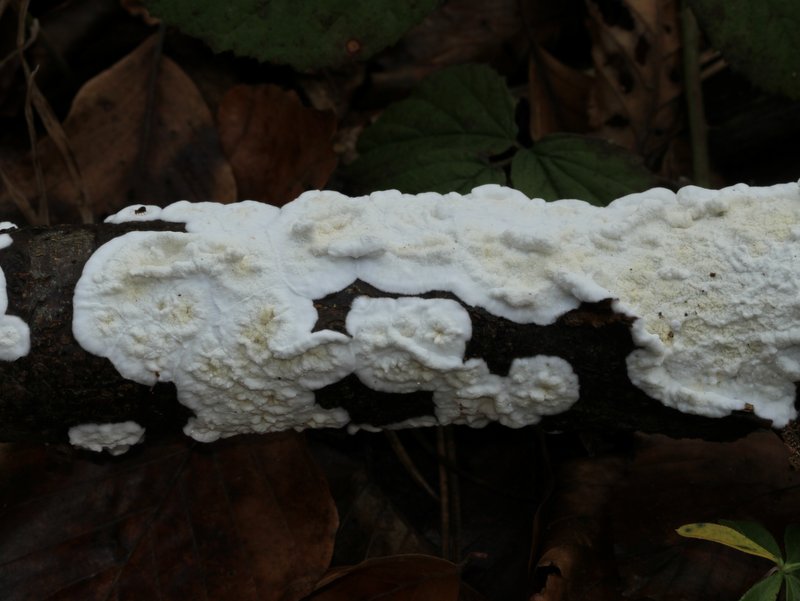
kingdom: Fungi
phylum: Basidiomycota
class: Agaricomycetes
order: Polyporales
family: Irpicaceae
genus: Byssomerulius
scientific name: Byssomerulius corium
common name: læder-åresvamp
